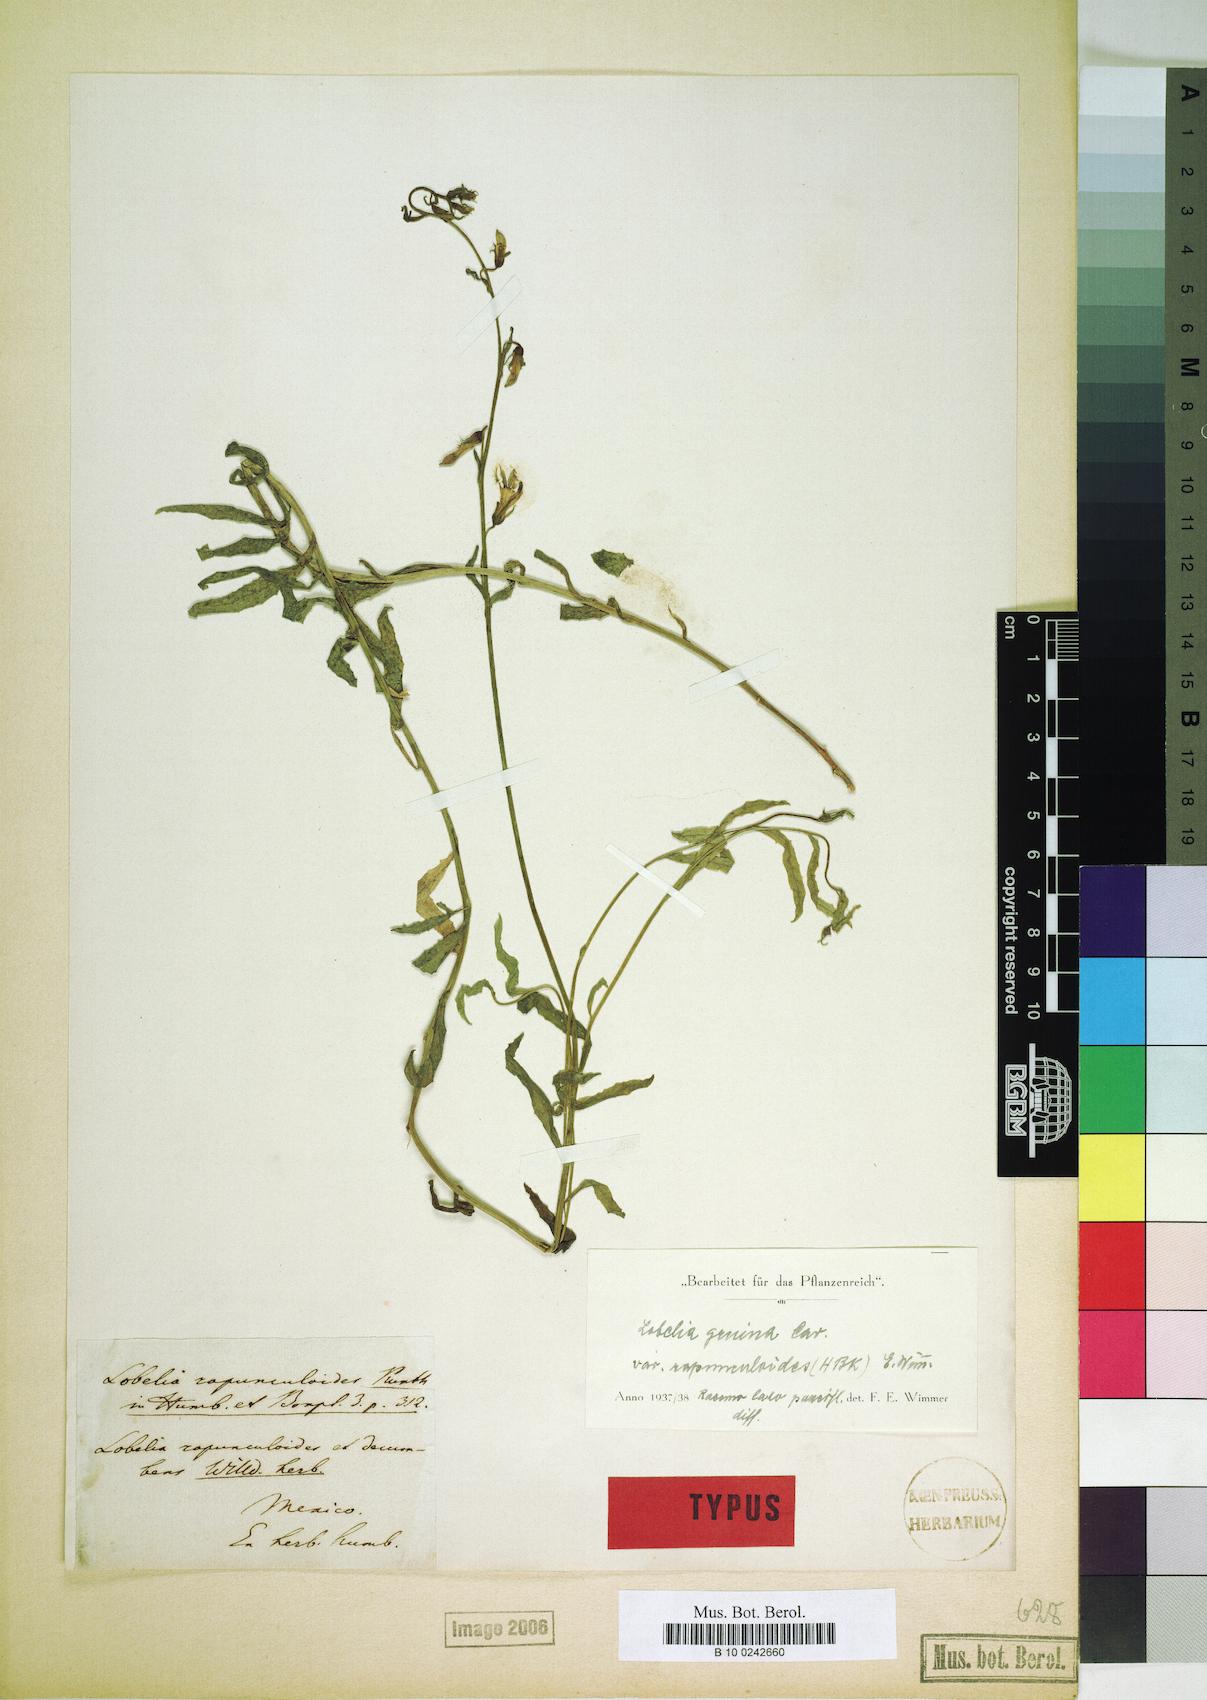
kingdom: Plantae
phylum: Tracheophyta
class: Magnoliopsida
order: Asterales
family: Campanulaceae
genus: Lobelia
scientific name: Lobelia gruina
